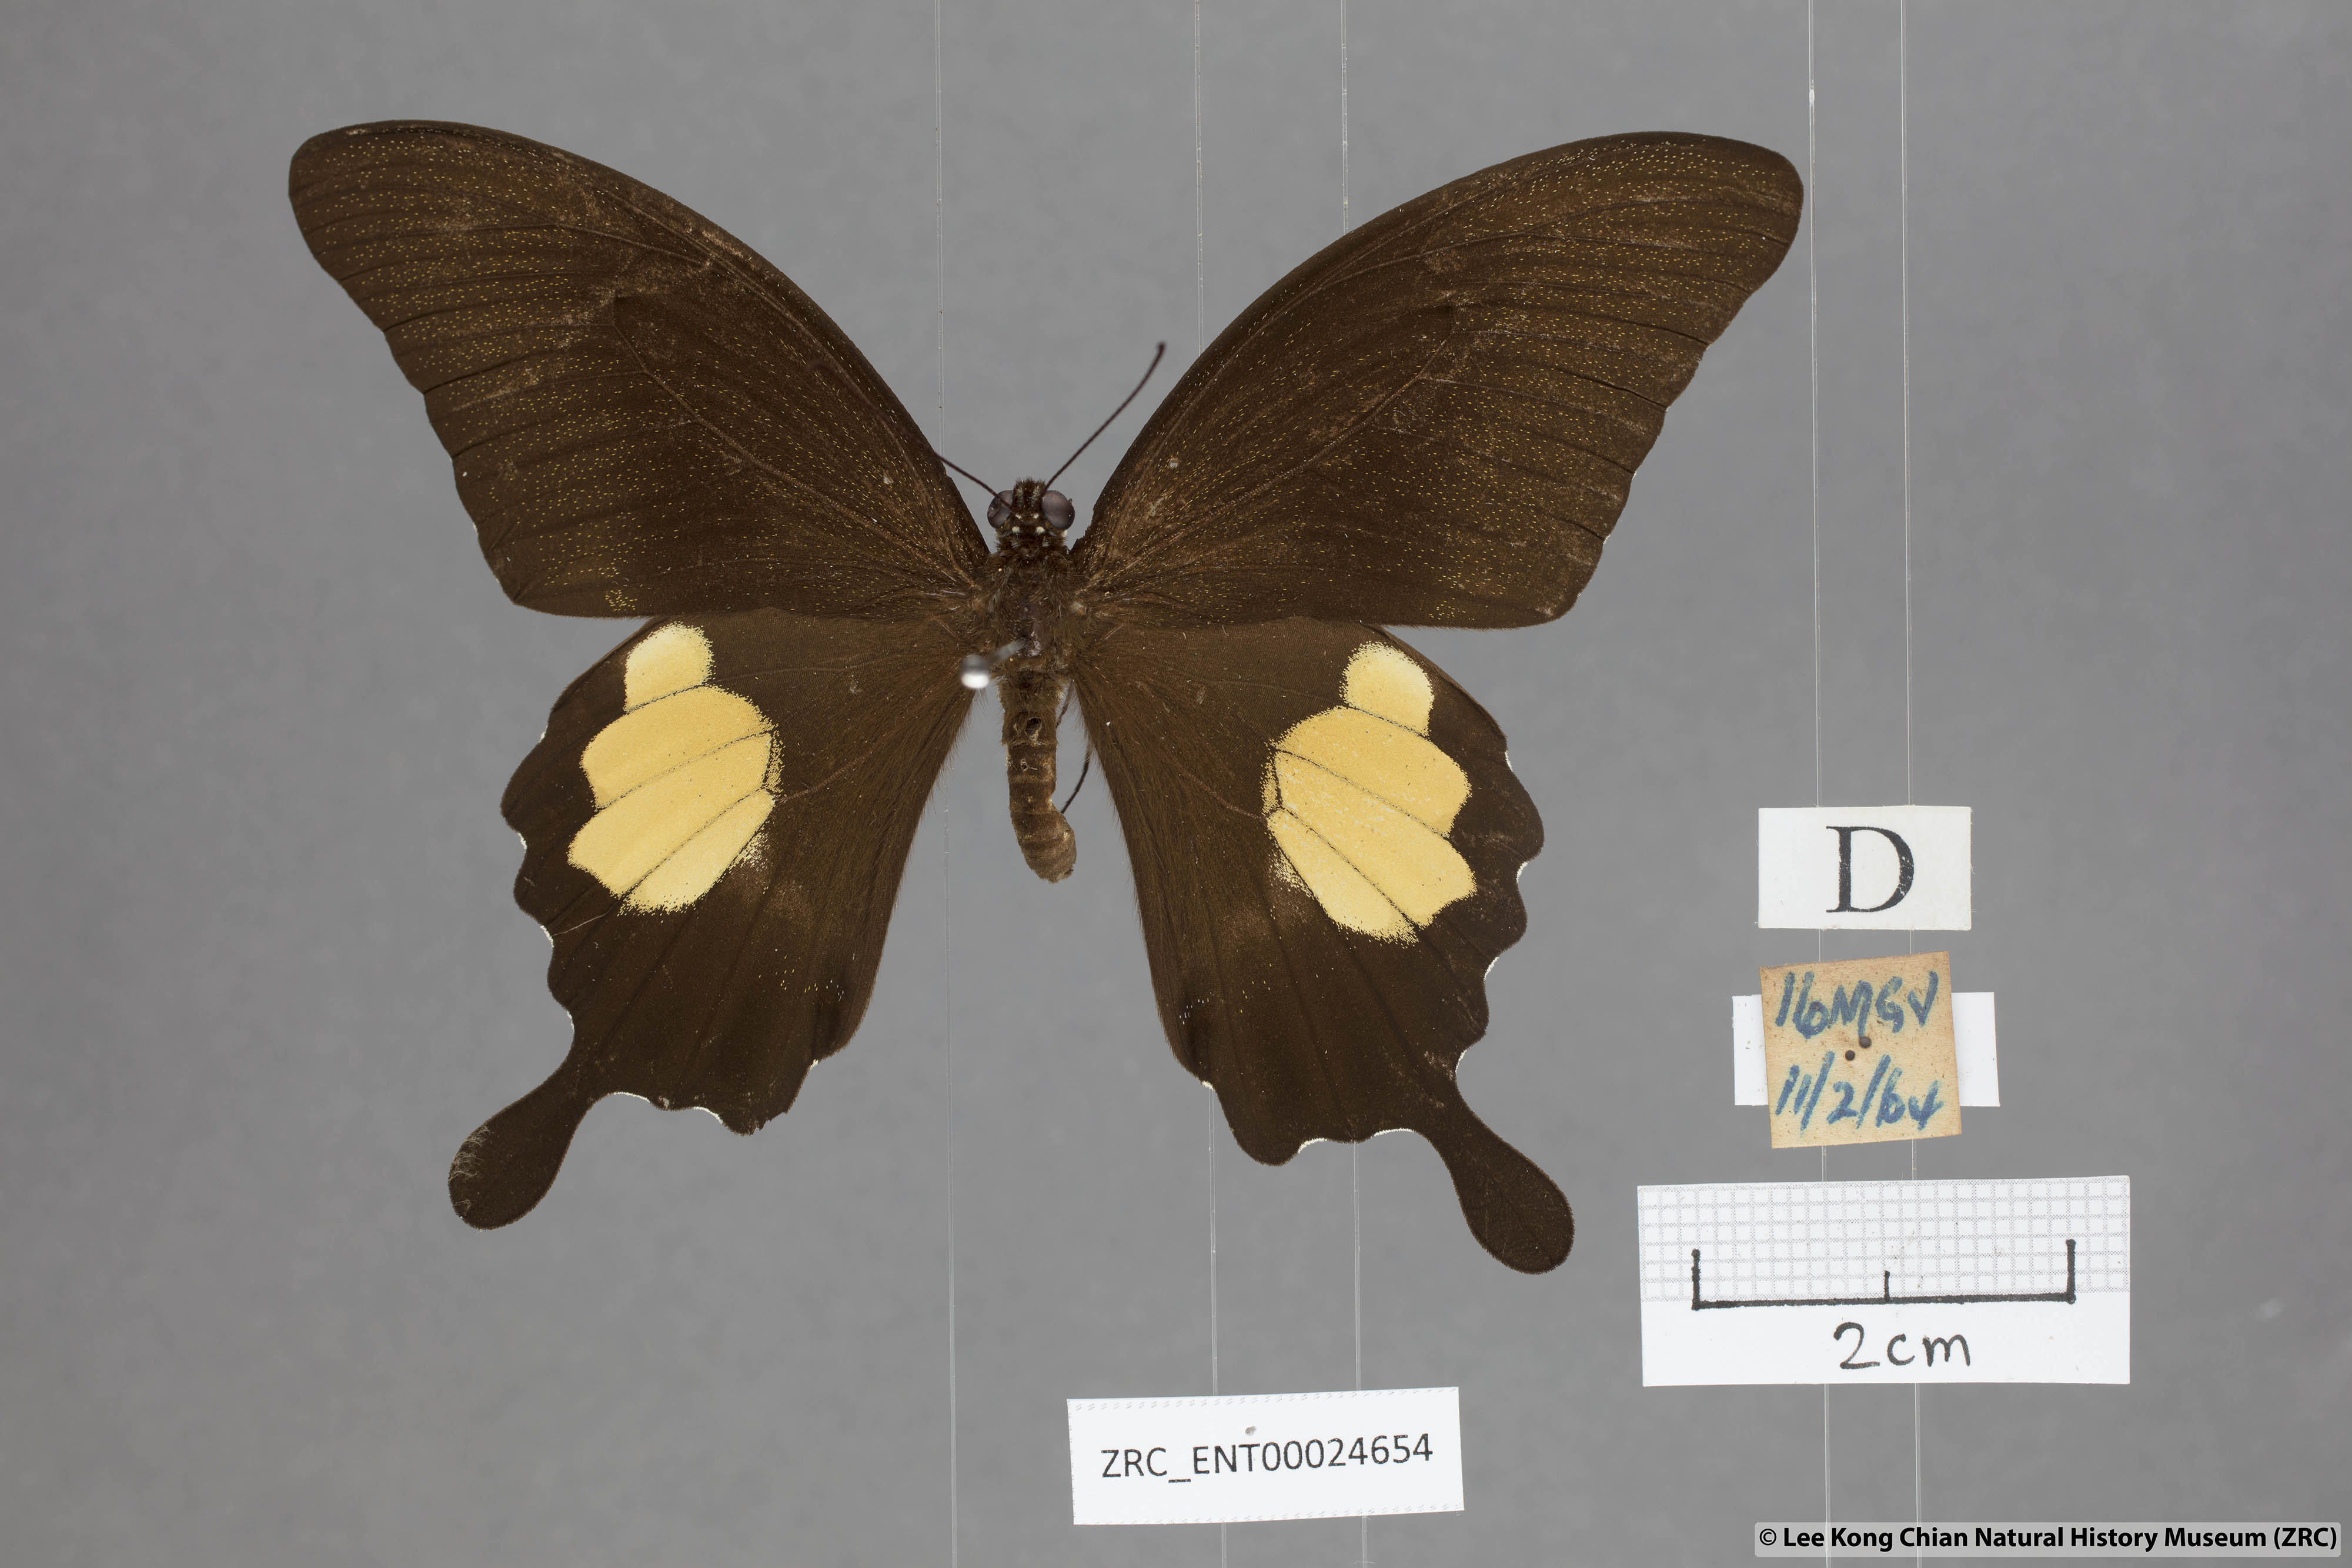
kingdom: Animalia
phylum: Arthropoda
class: Insecta
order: Lepidoptera
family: Papilionidae
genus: Papilio
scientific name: Papilio prexaspes
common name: Blue helen swallowtail
